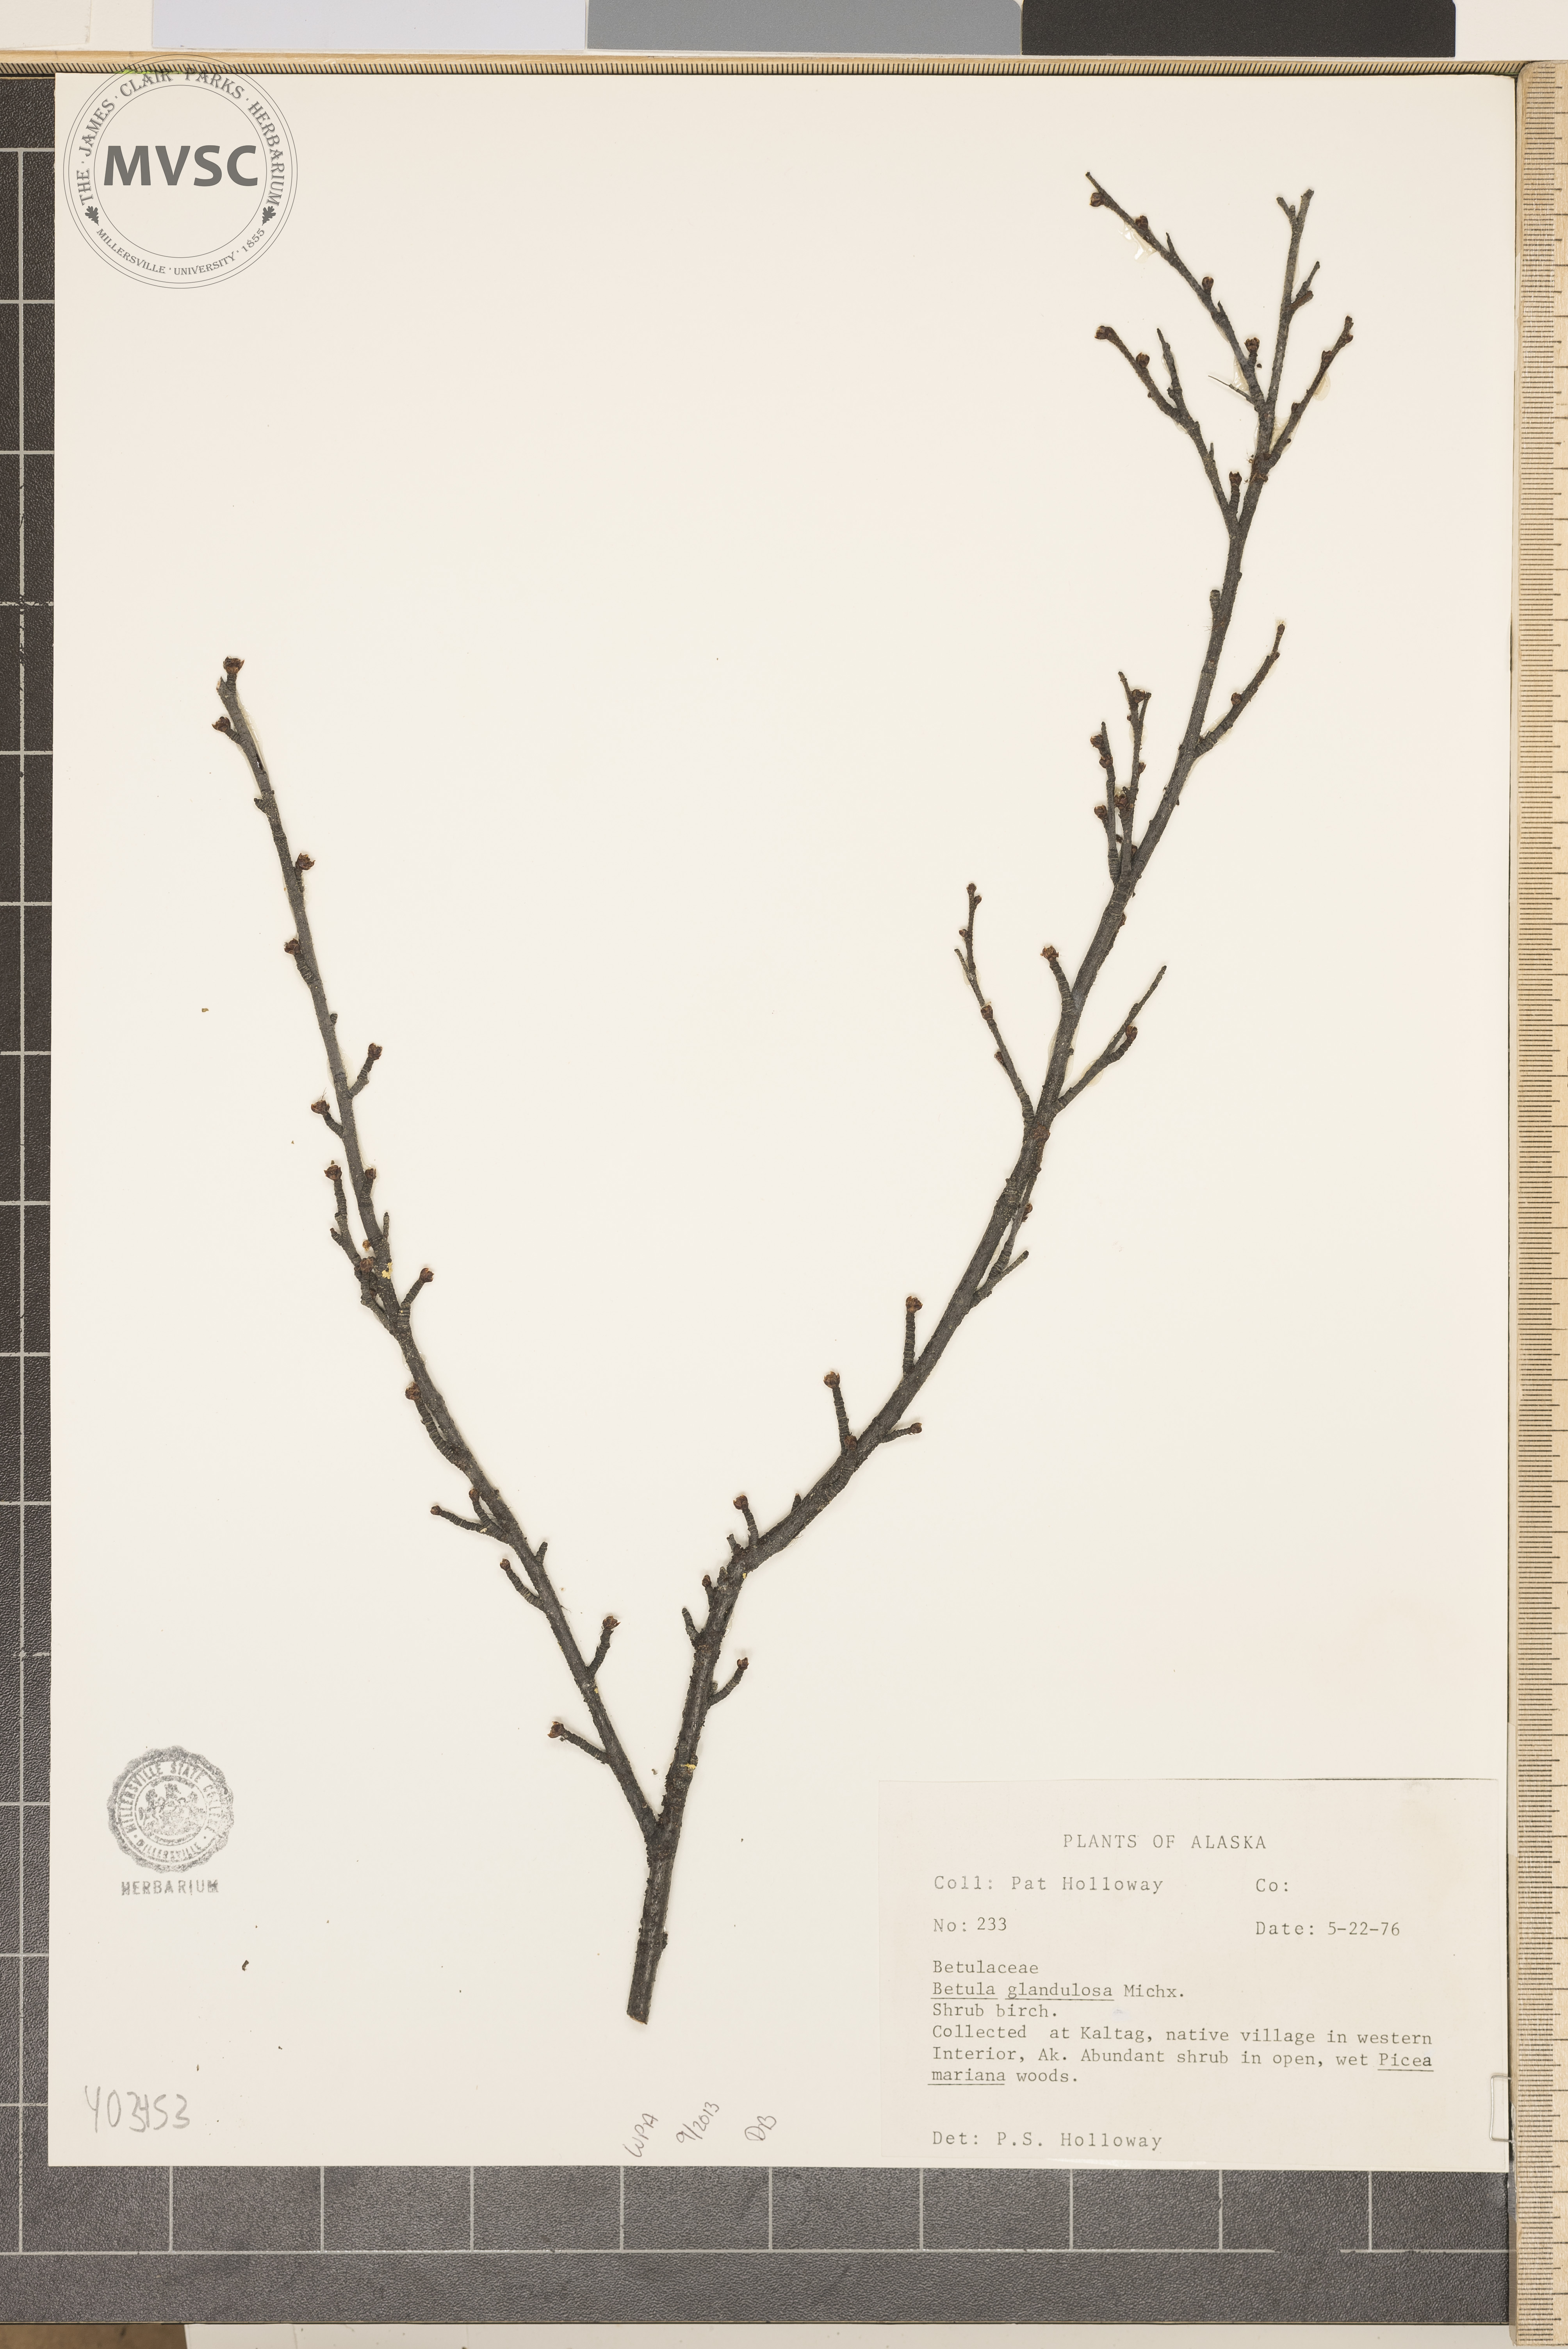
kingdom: Plantae
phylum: Tracheophyta
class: Magnoliopsida
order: Fagales
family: Betulaceae
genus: Betula
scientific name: Betula glandulosa
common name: Shrub Birch
